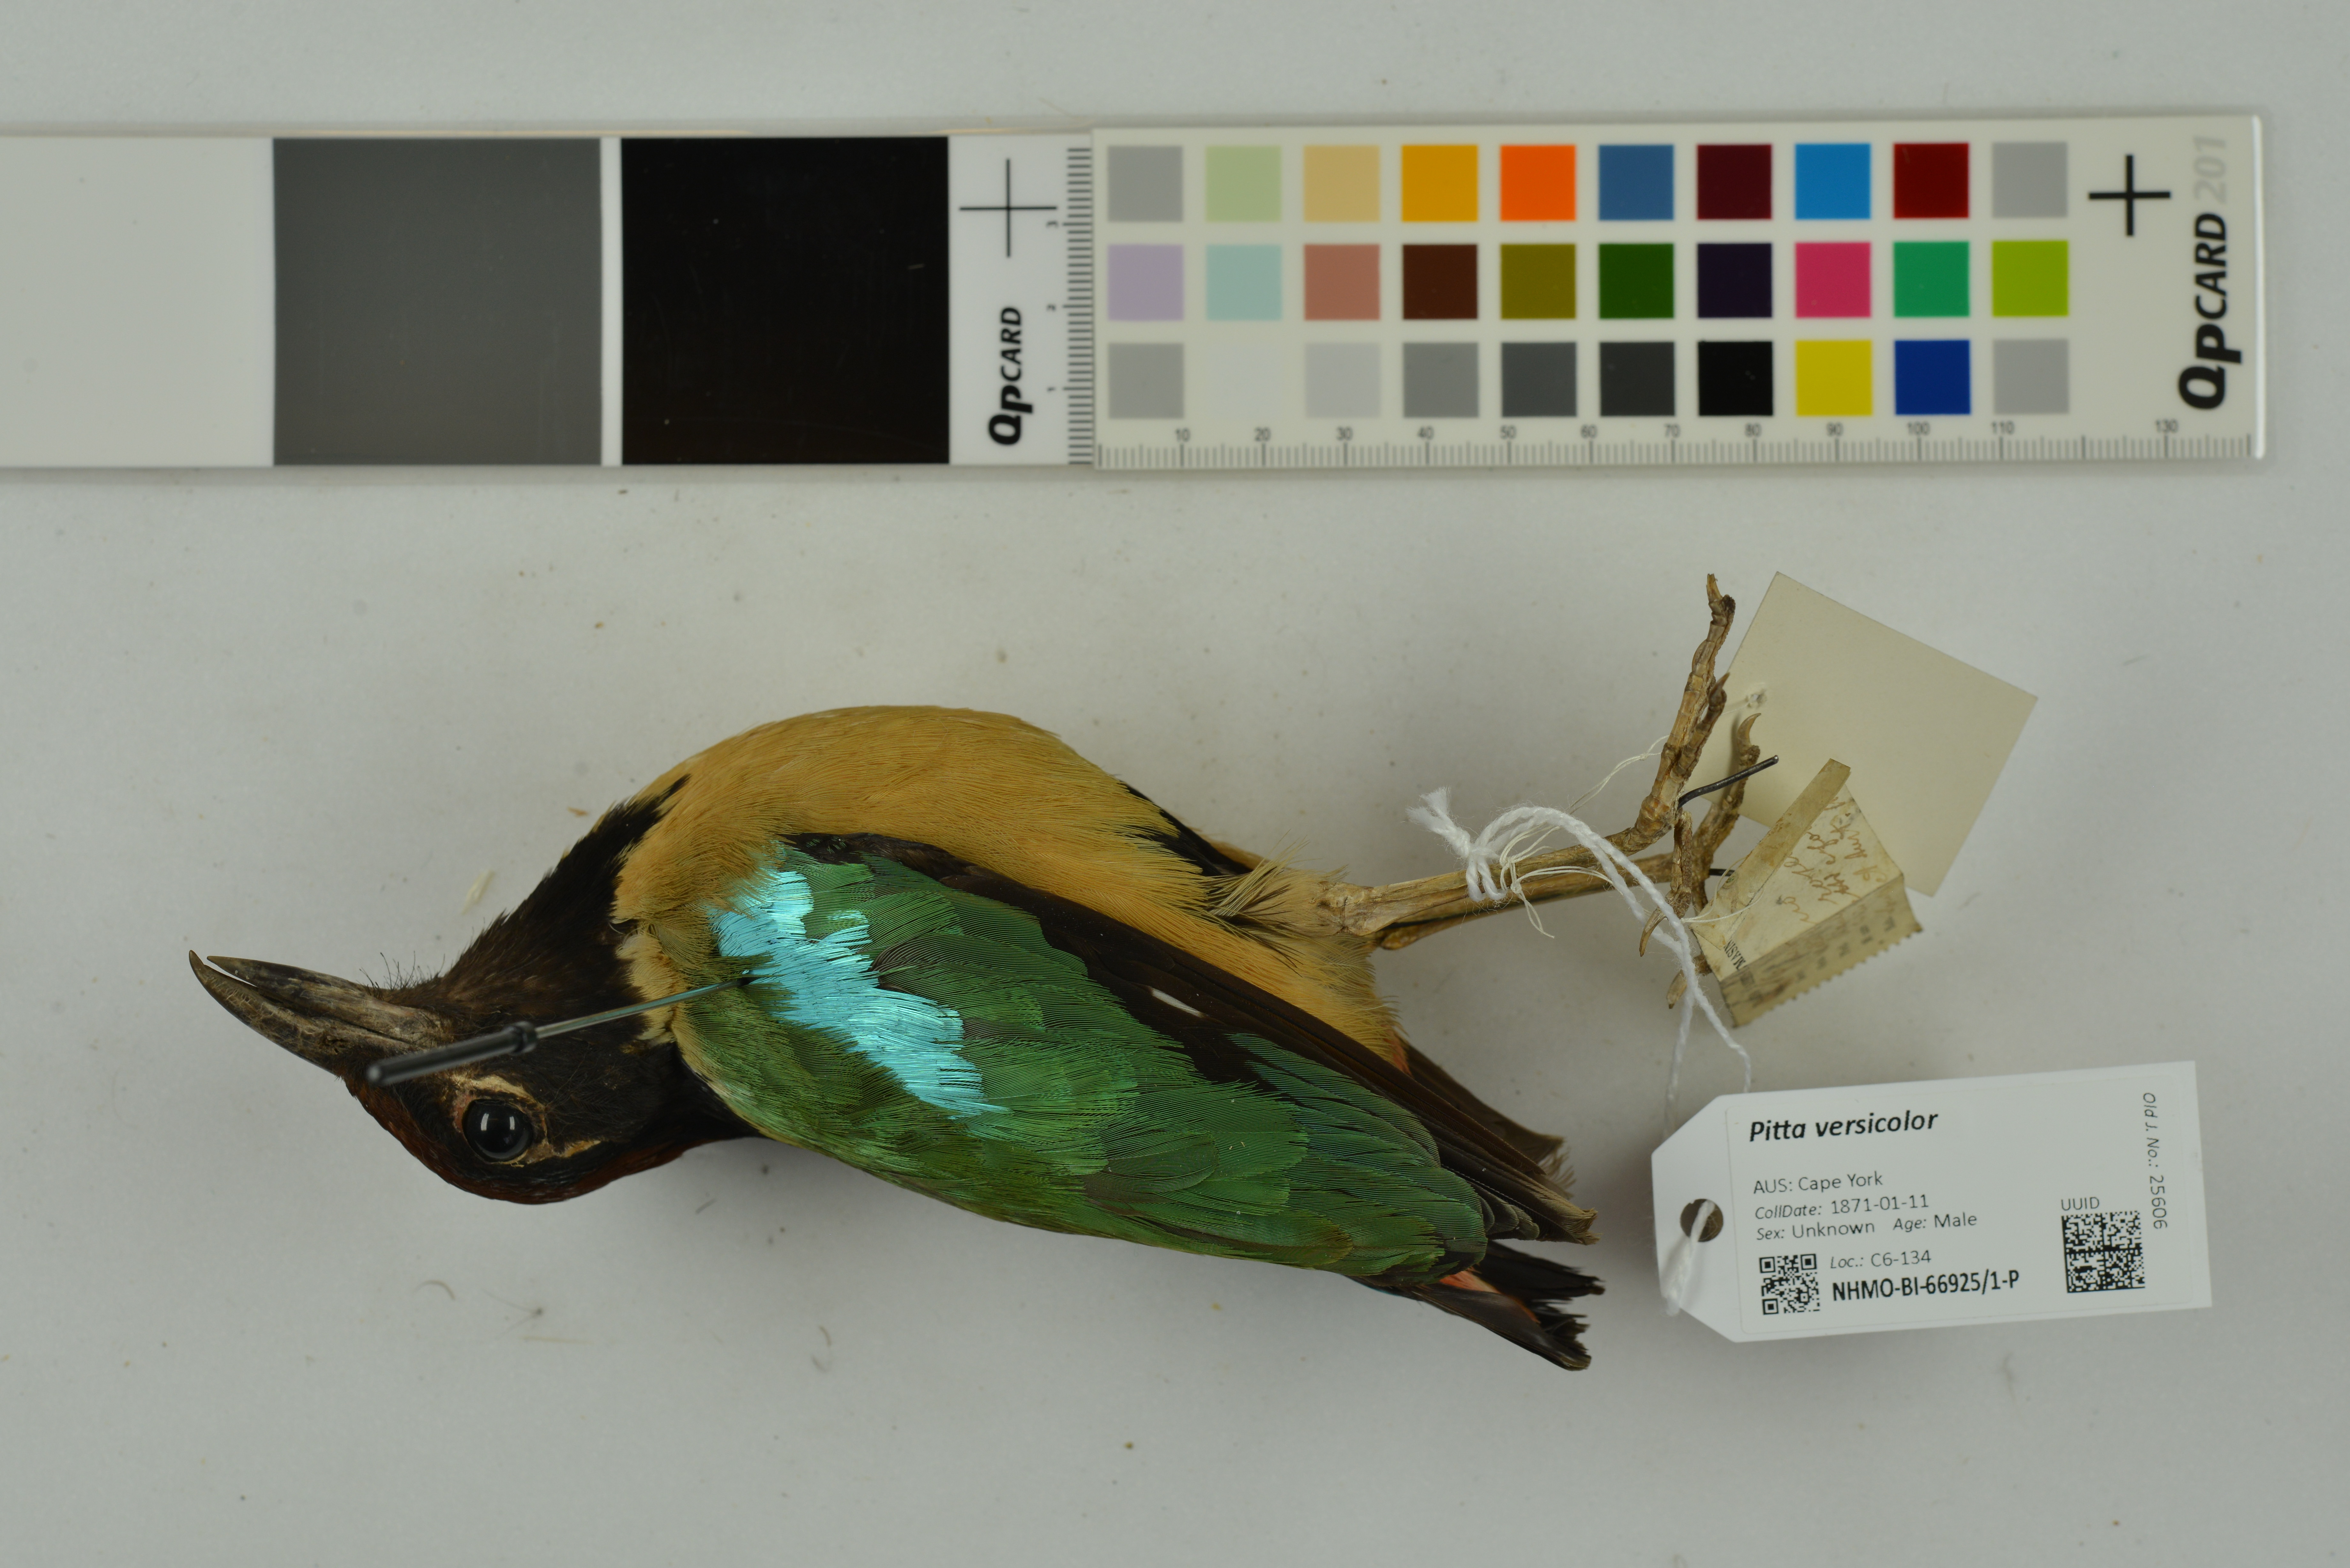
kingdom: Animalia
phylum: Chordata
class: Aves
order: Passeriformes
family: Pittidae
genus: Pitta
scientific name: Pitta versicolor
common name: Noisy pitta
